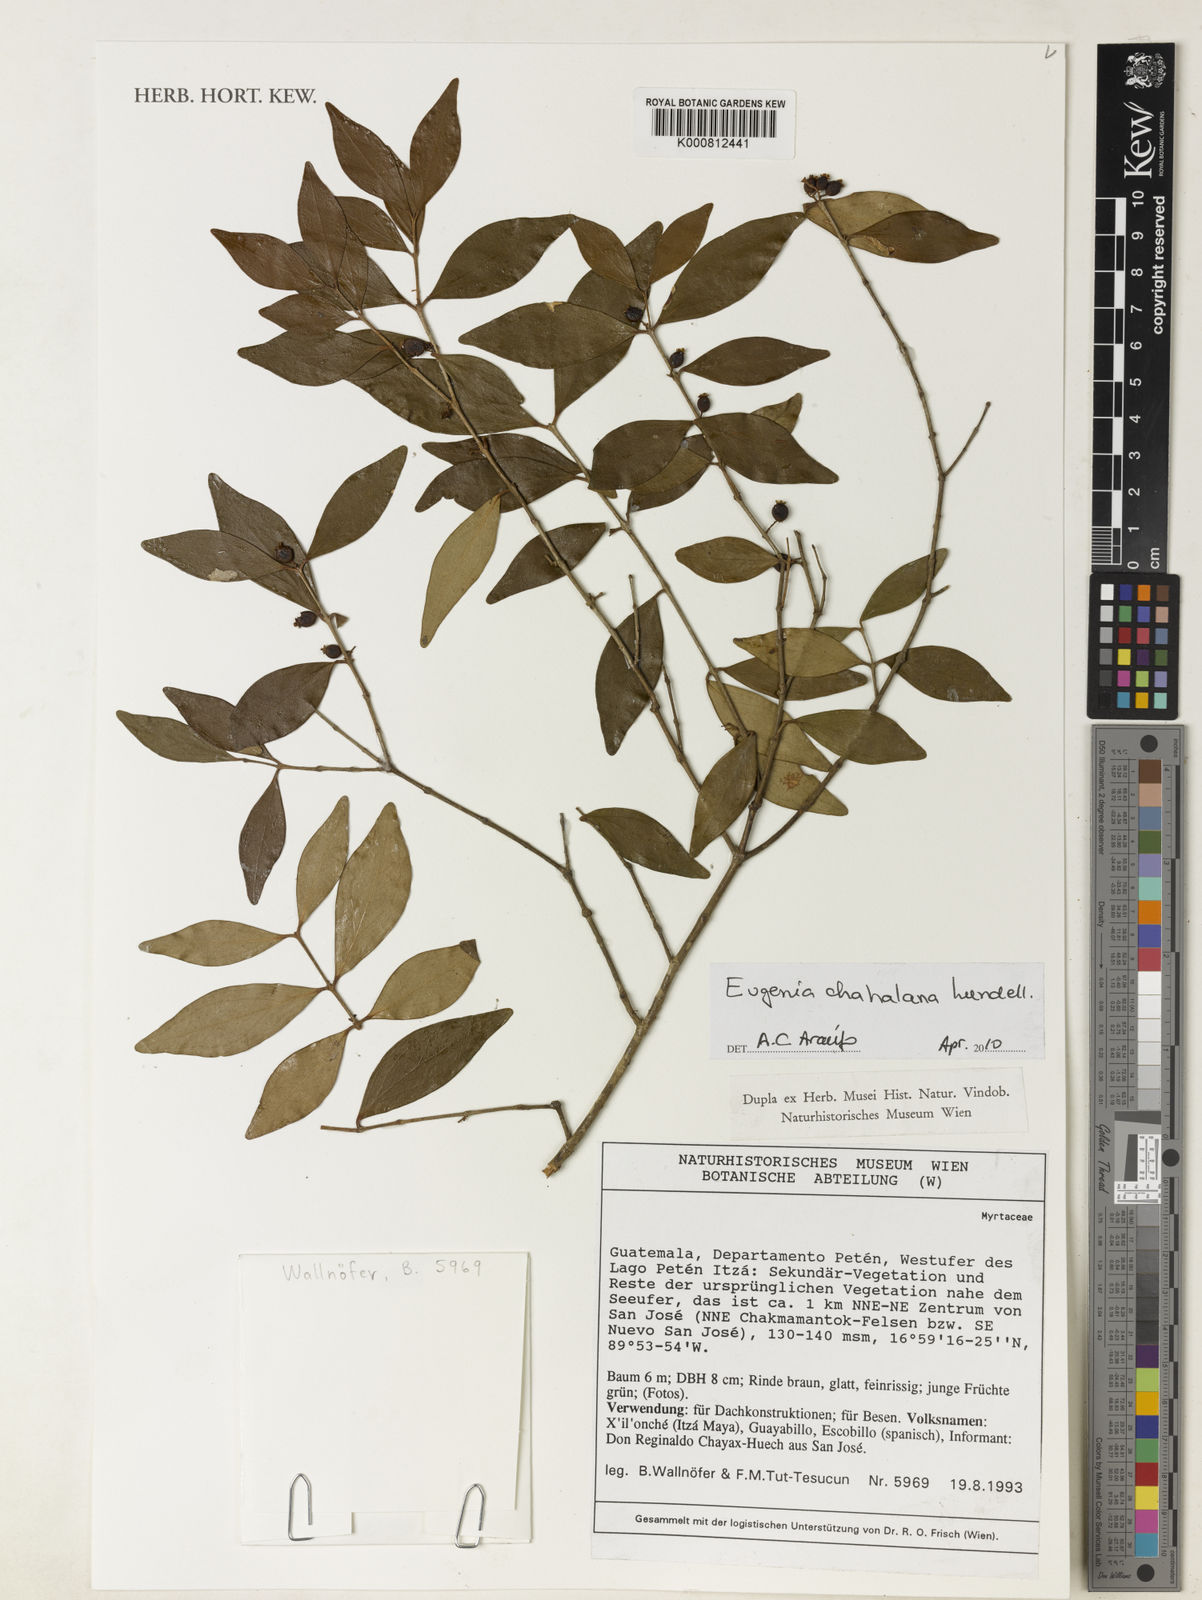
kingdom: Plantae
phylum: Tracheophyta
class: Magnoliopsida
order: Myrtales
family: Myrtaceae
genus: Eugenia
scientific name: Eugenia chahalana
